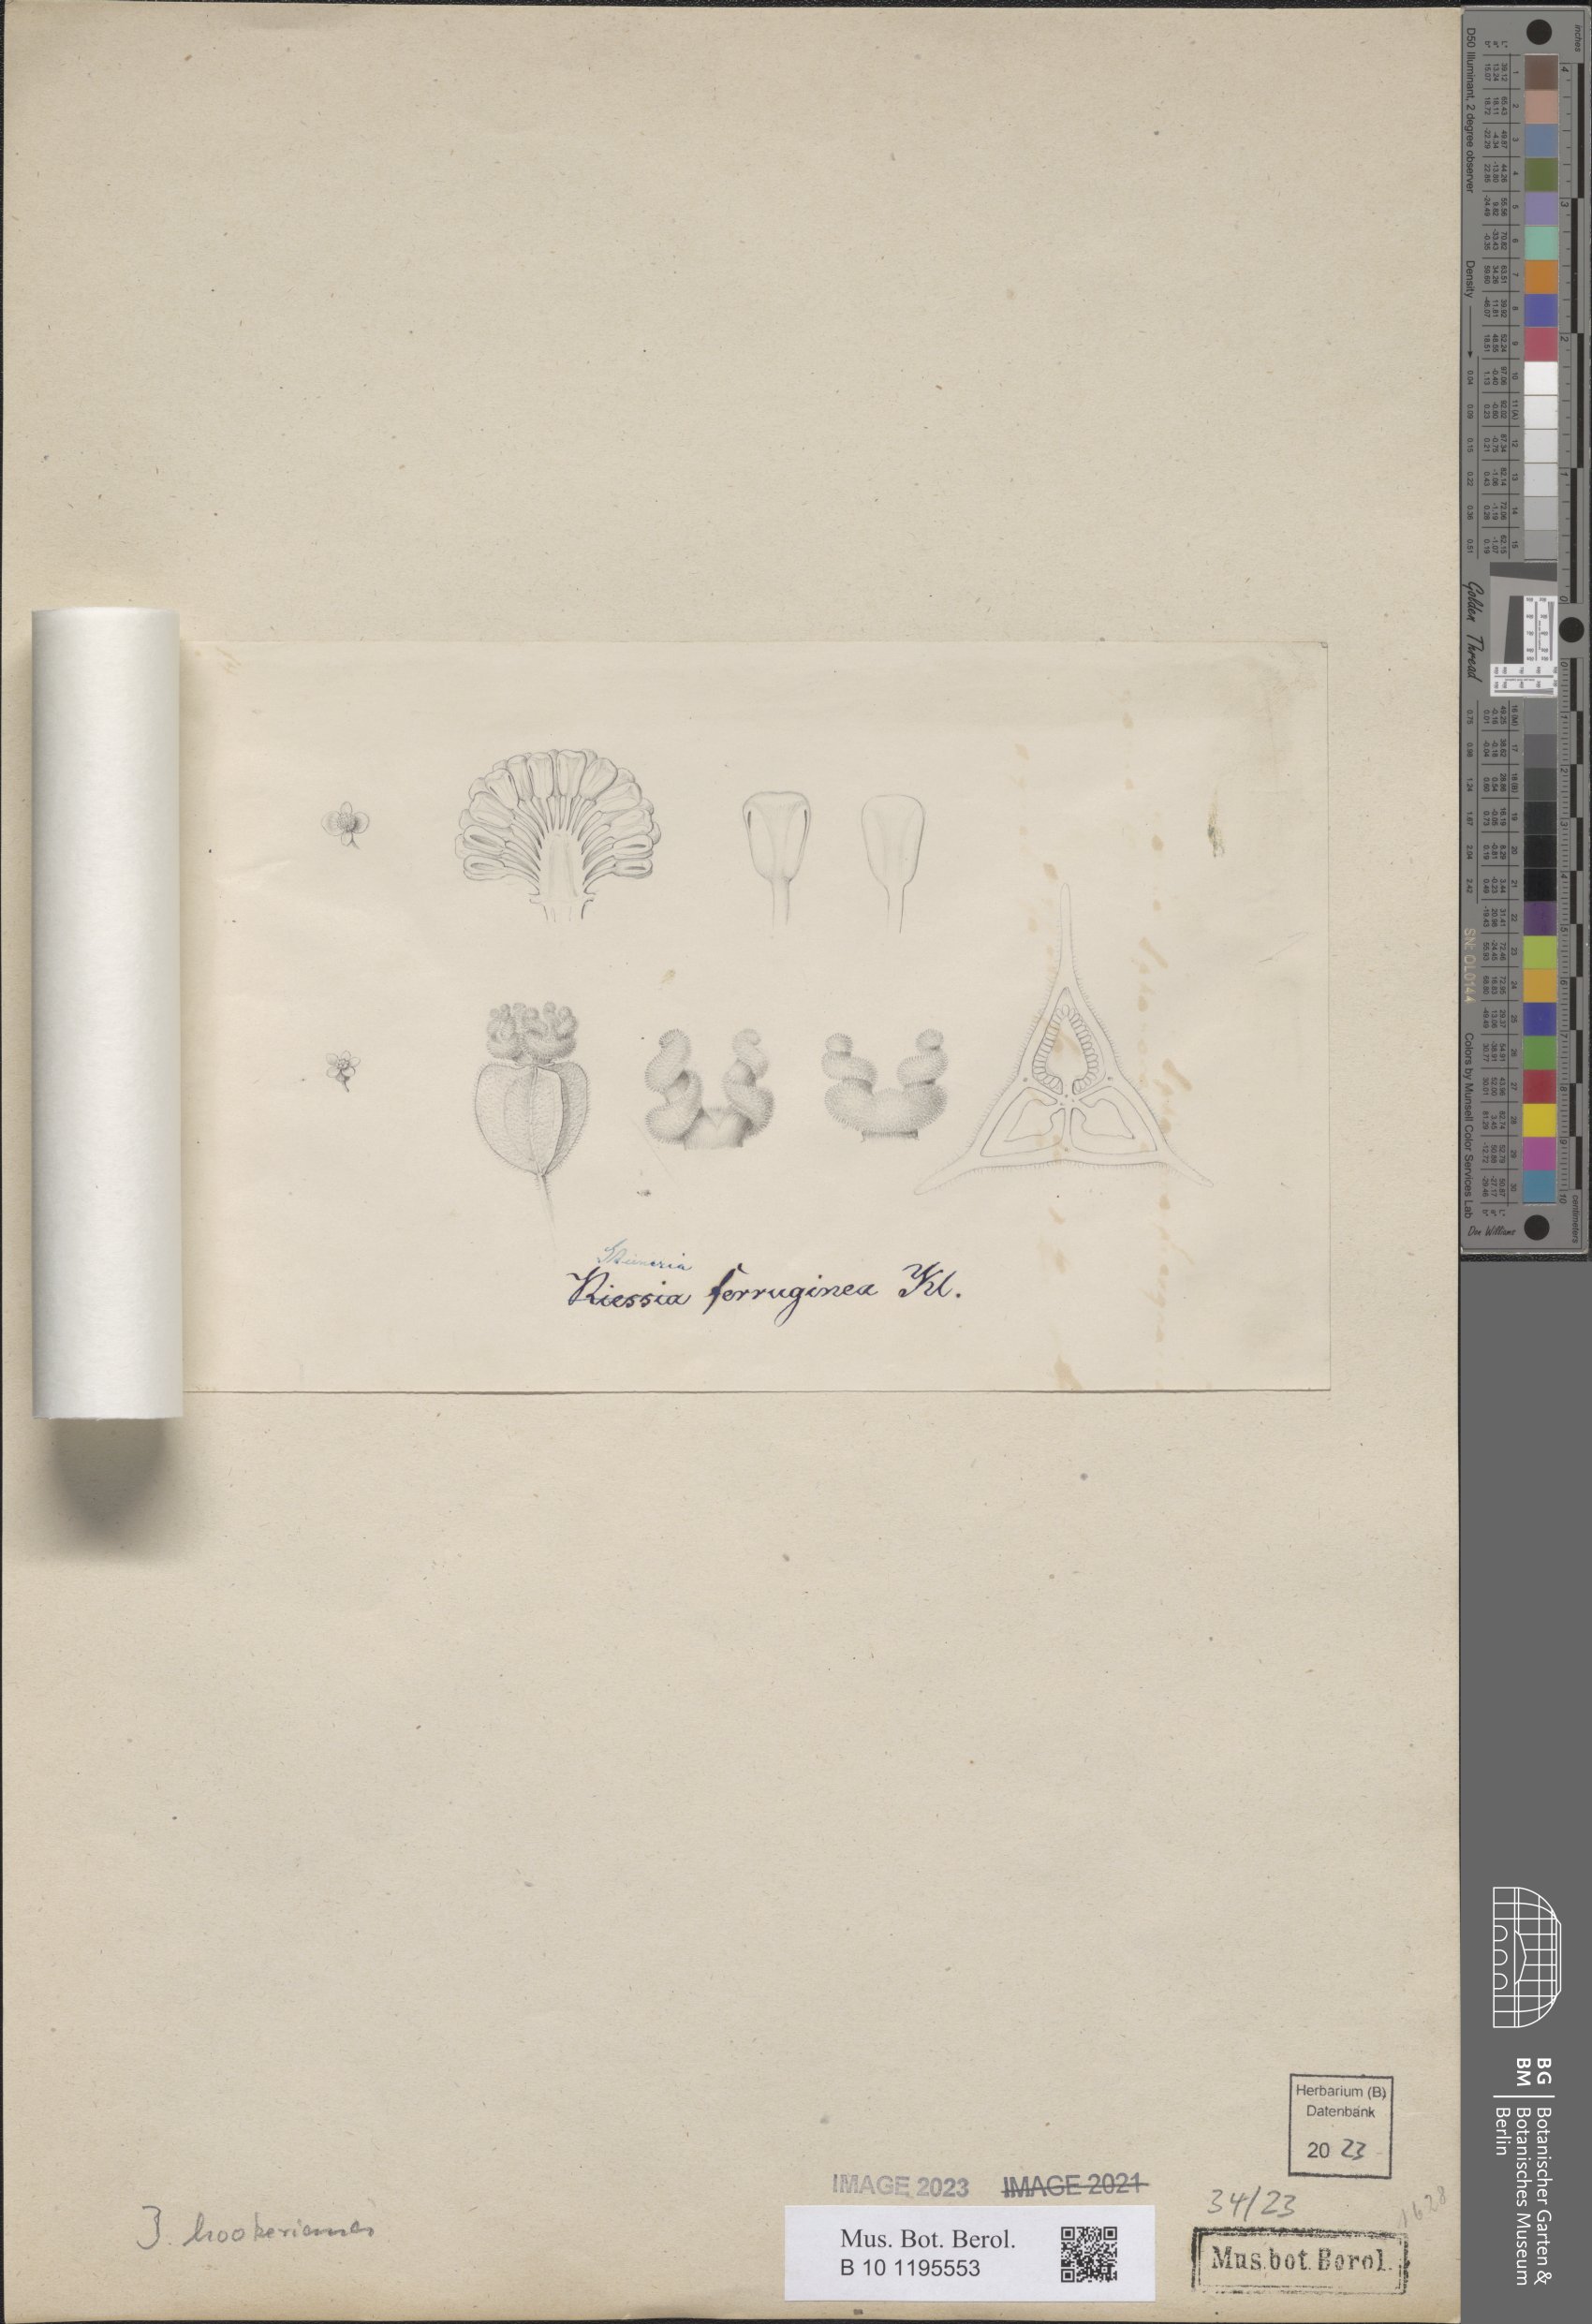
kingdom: Plantae
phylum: Tracheophyta
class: Magnoliopsida
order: Cucurbitales
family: Begoniaceae
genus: Begonia
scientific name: Begonia hookeriana
